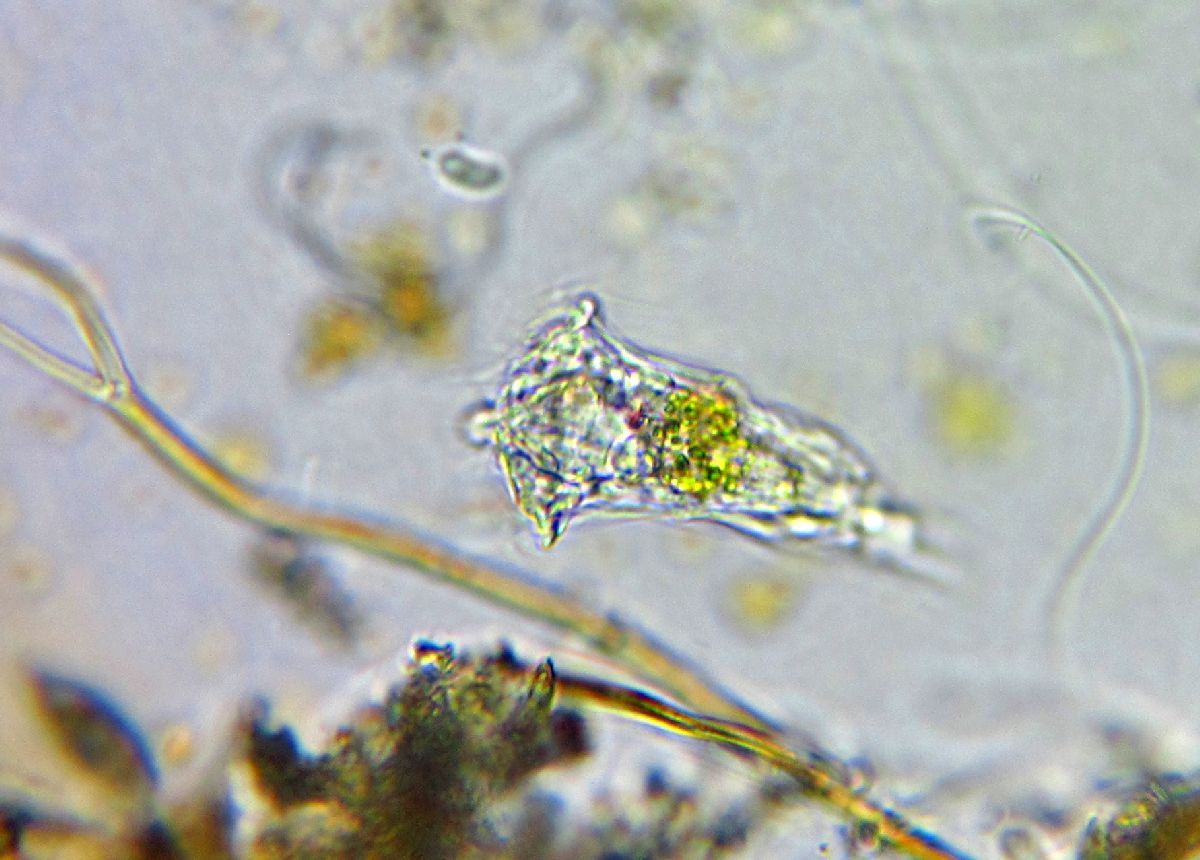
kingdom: Animalia
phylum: Rotifera
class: Eurotatoria
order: Ploima
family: Notommatidae
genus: Cephalodella
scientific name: Cephalodella auriculata
